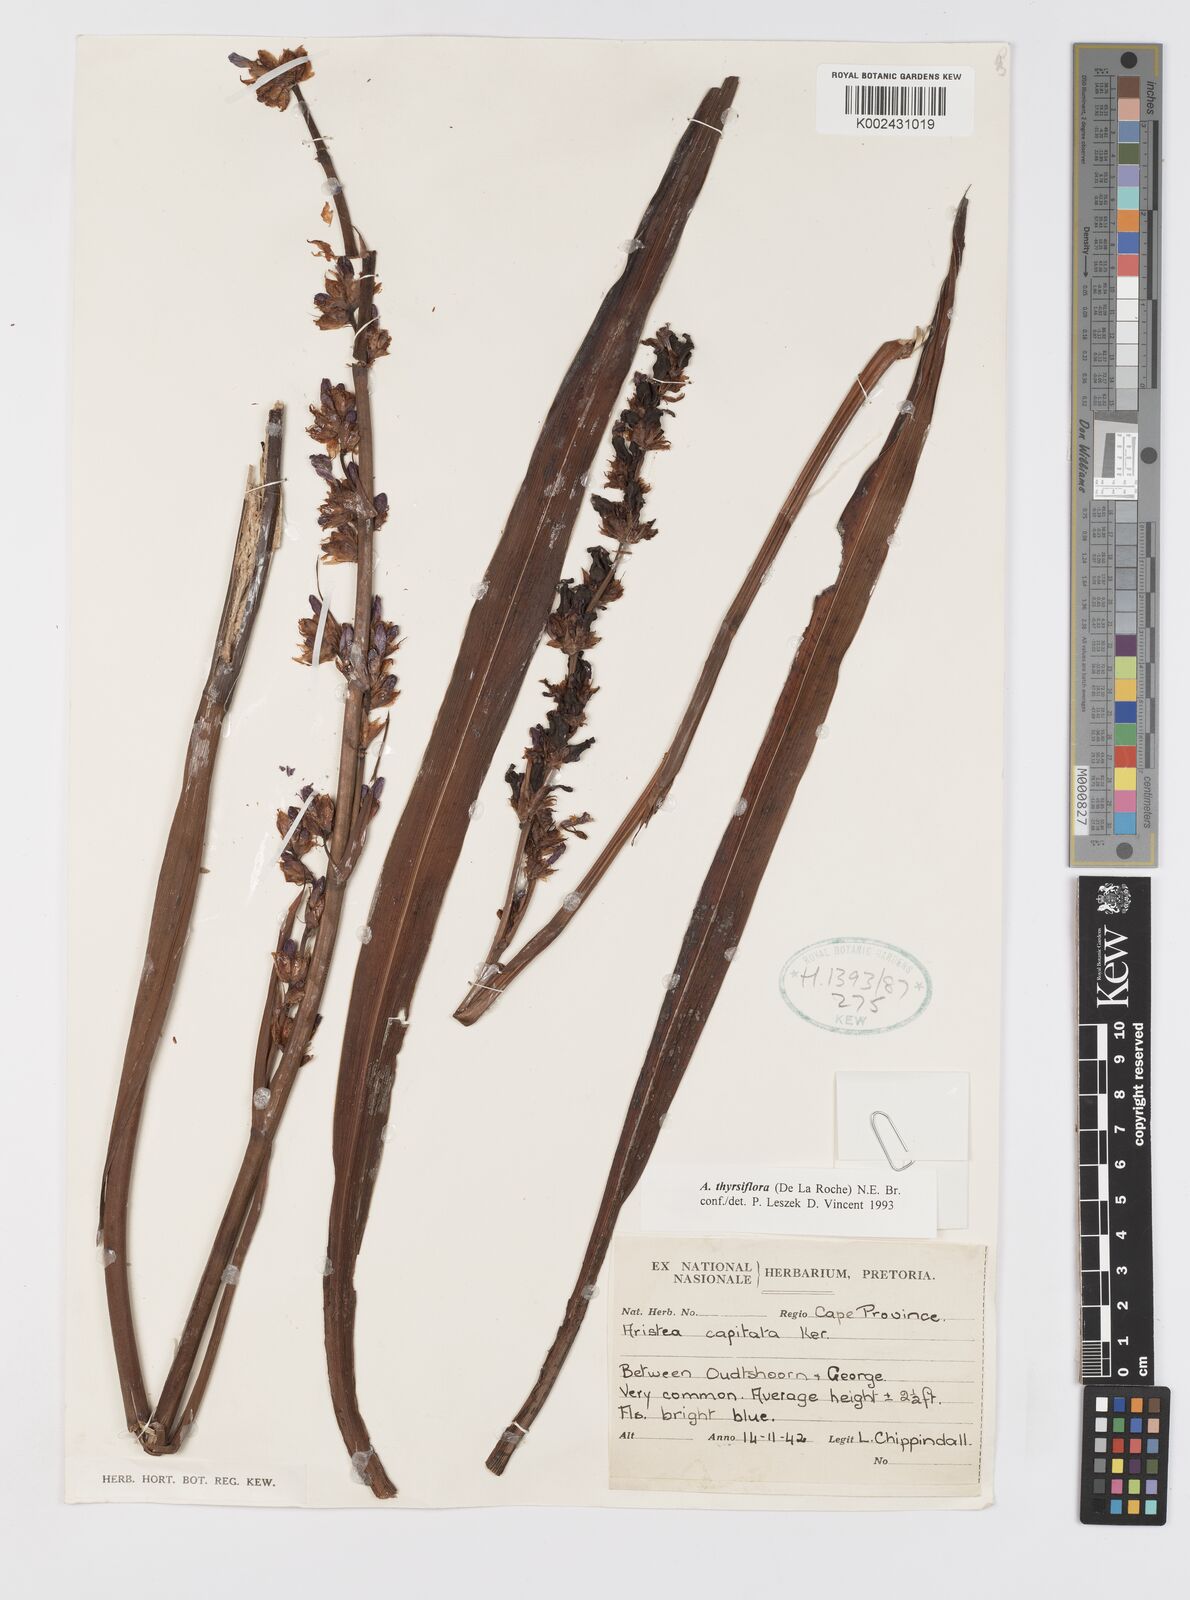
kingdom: Plantae
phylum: Tracheophyta
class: Liliopsida
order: Asparagales
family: Iridaceae
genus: Aristea
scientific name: Aristea capitata
